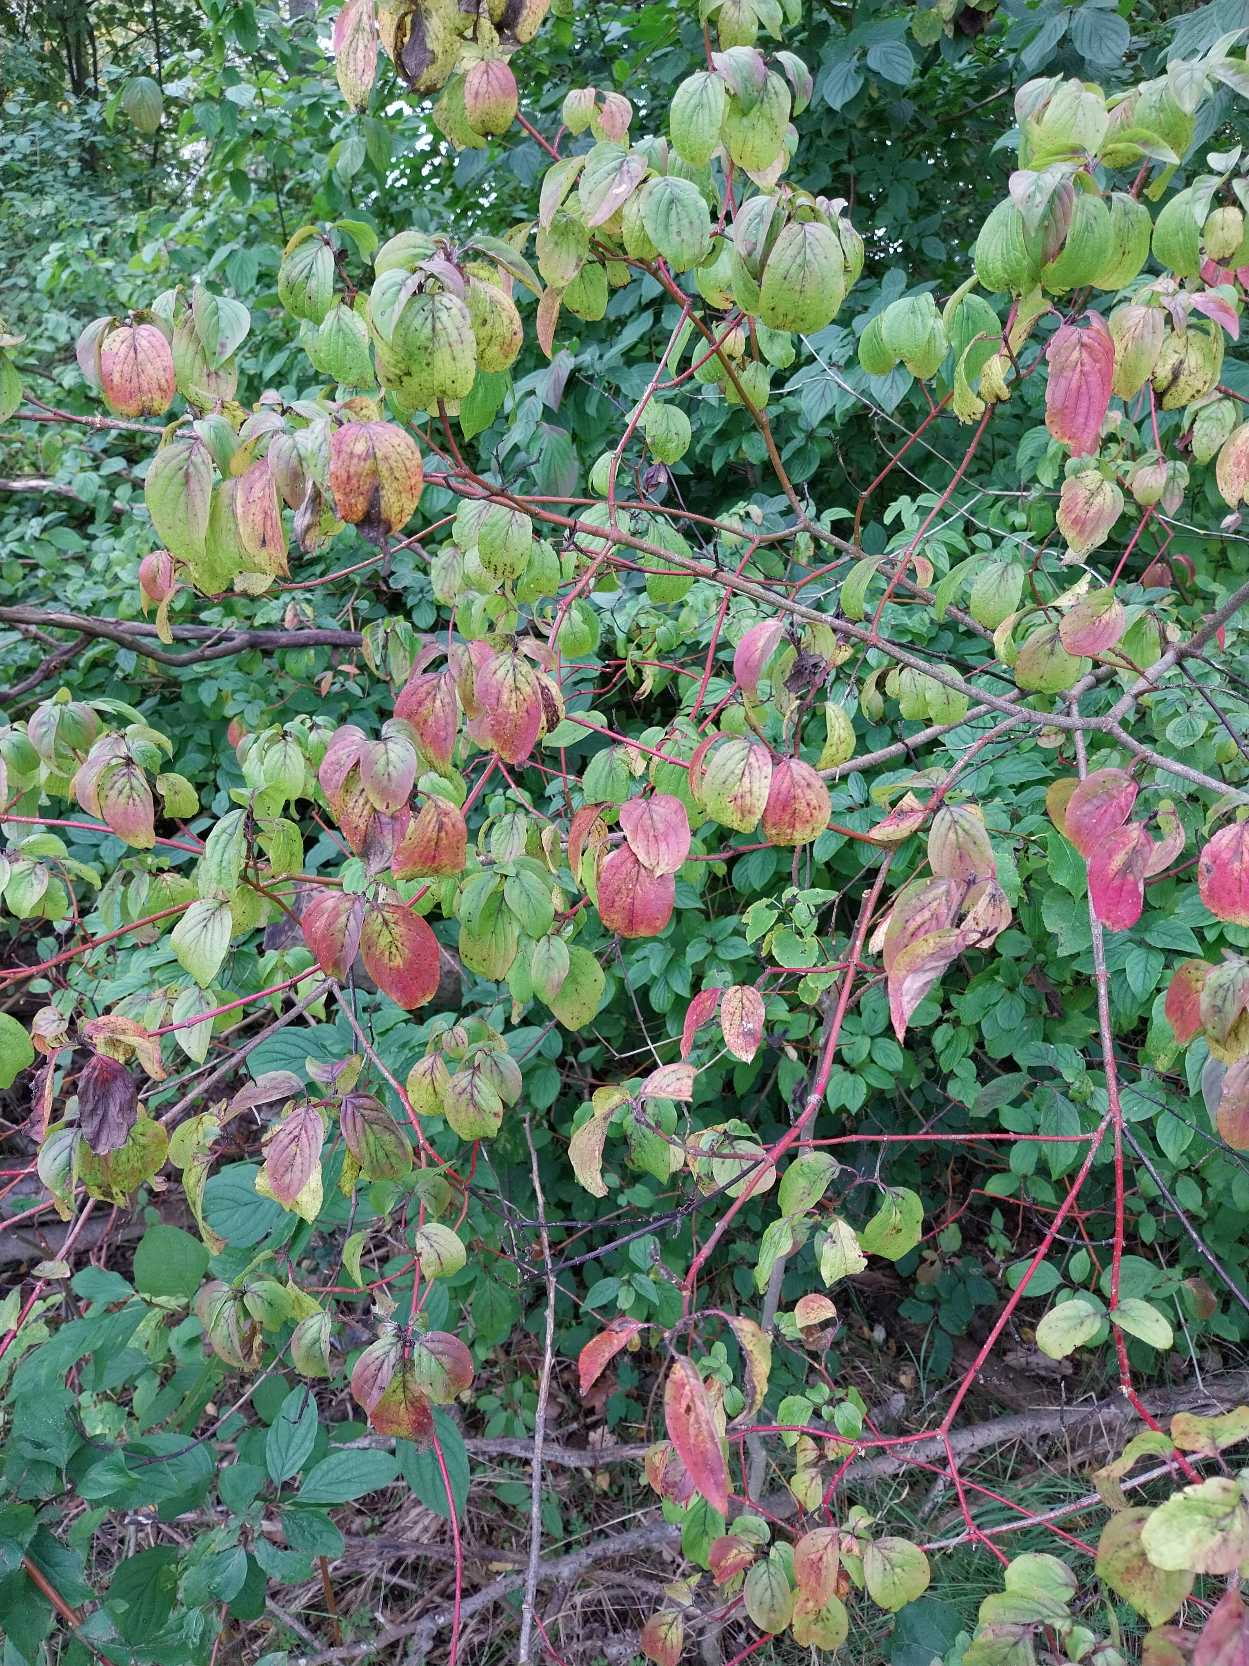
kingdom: Plantae
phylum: Tracheophyta
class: Magnoliopsida
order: Cornales
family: Cornaceae
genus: Cornus
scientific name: Cornus sanguinea
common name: Rød kornel
